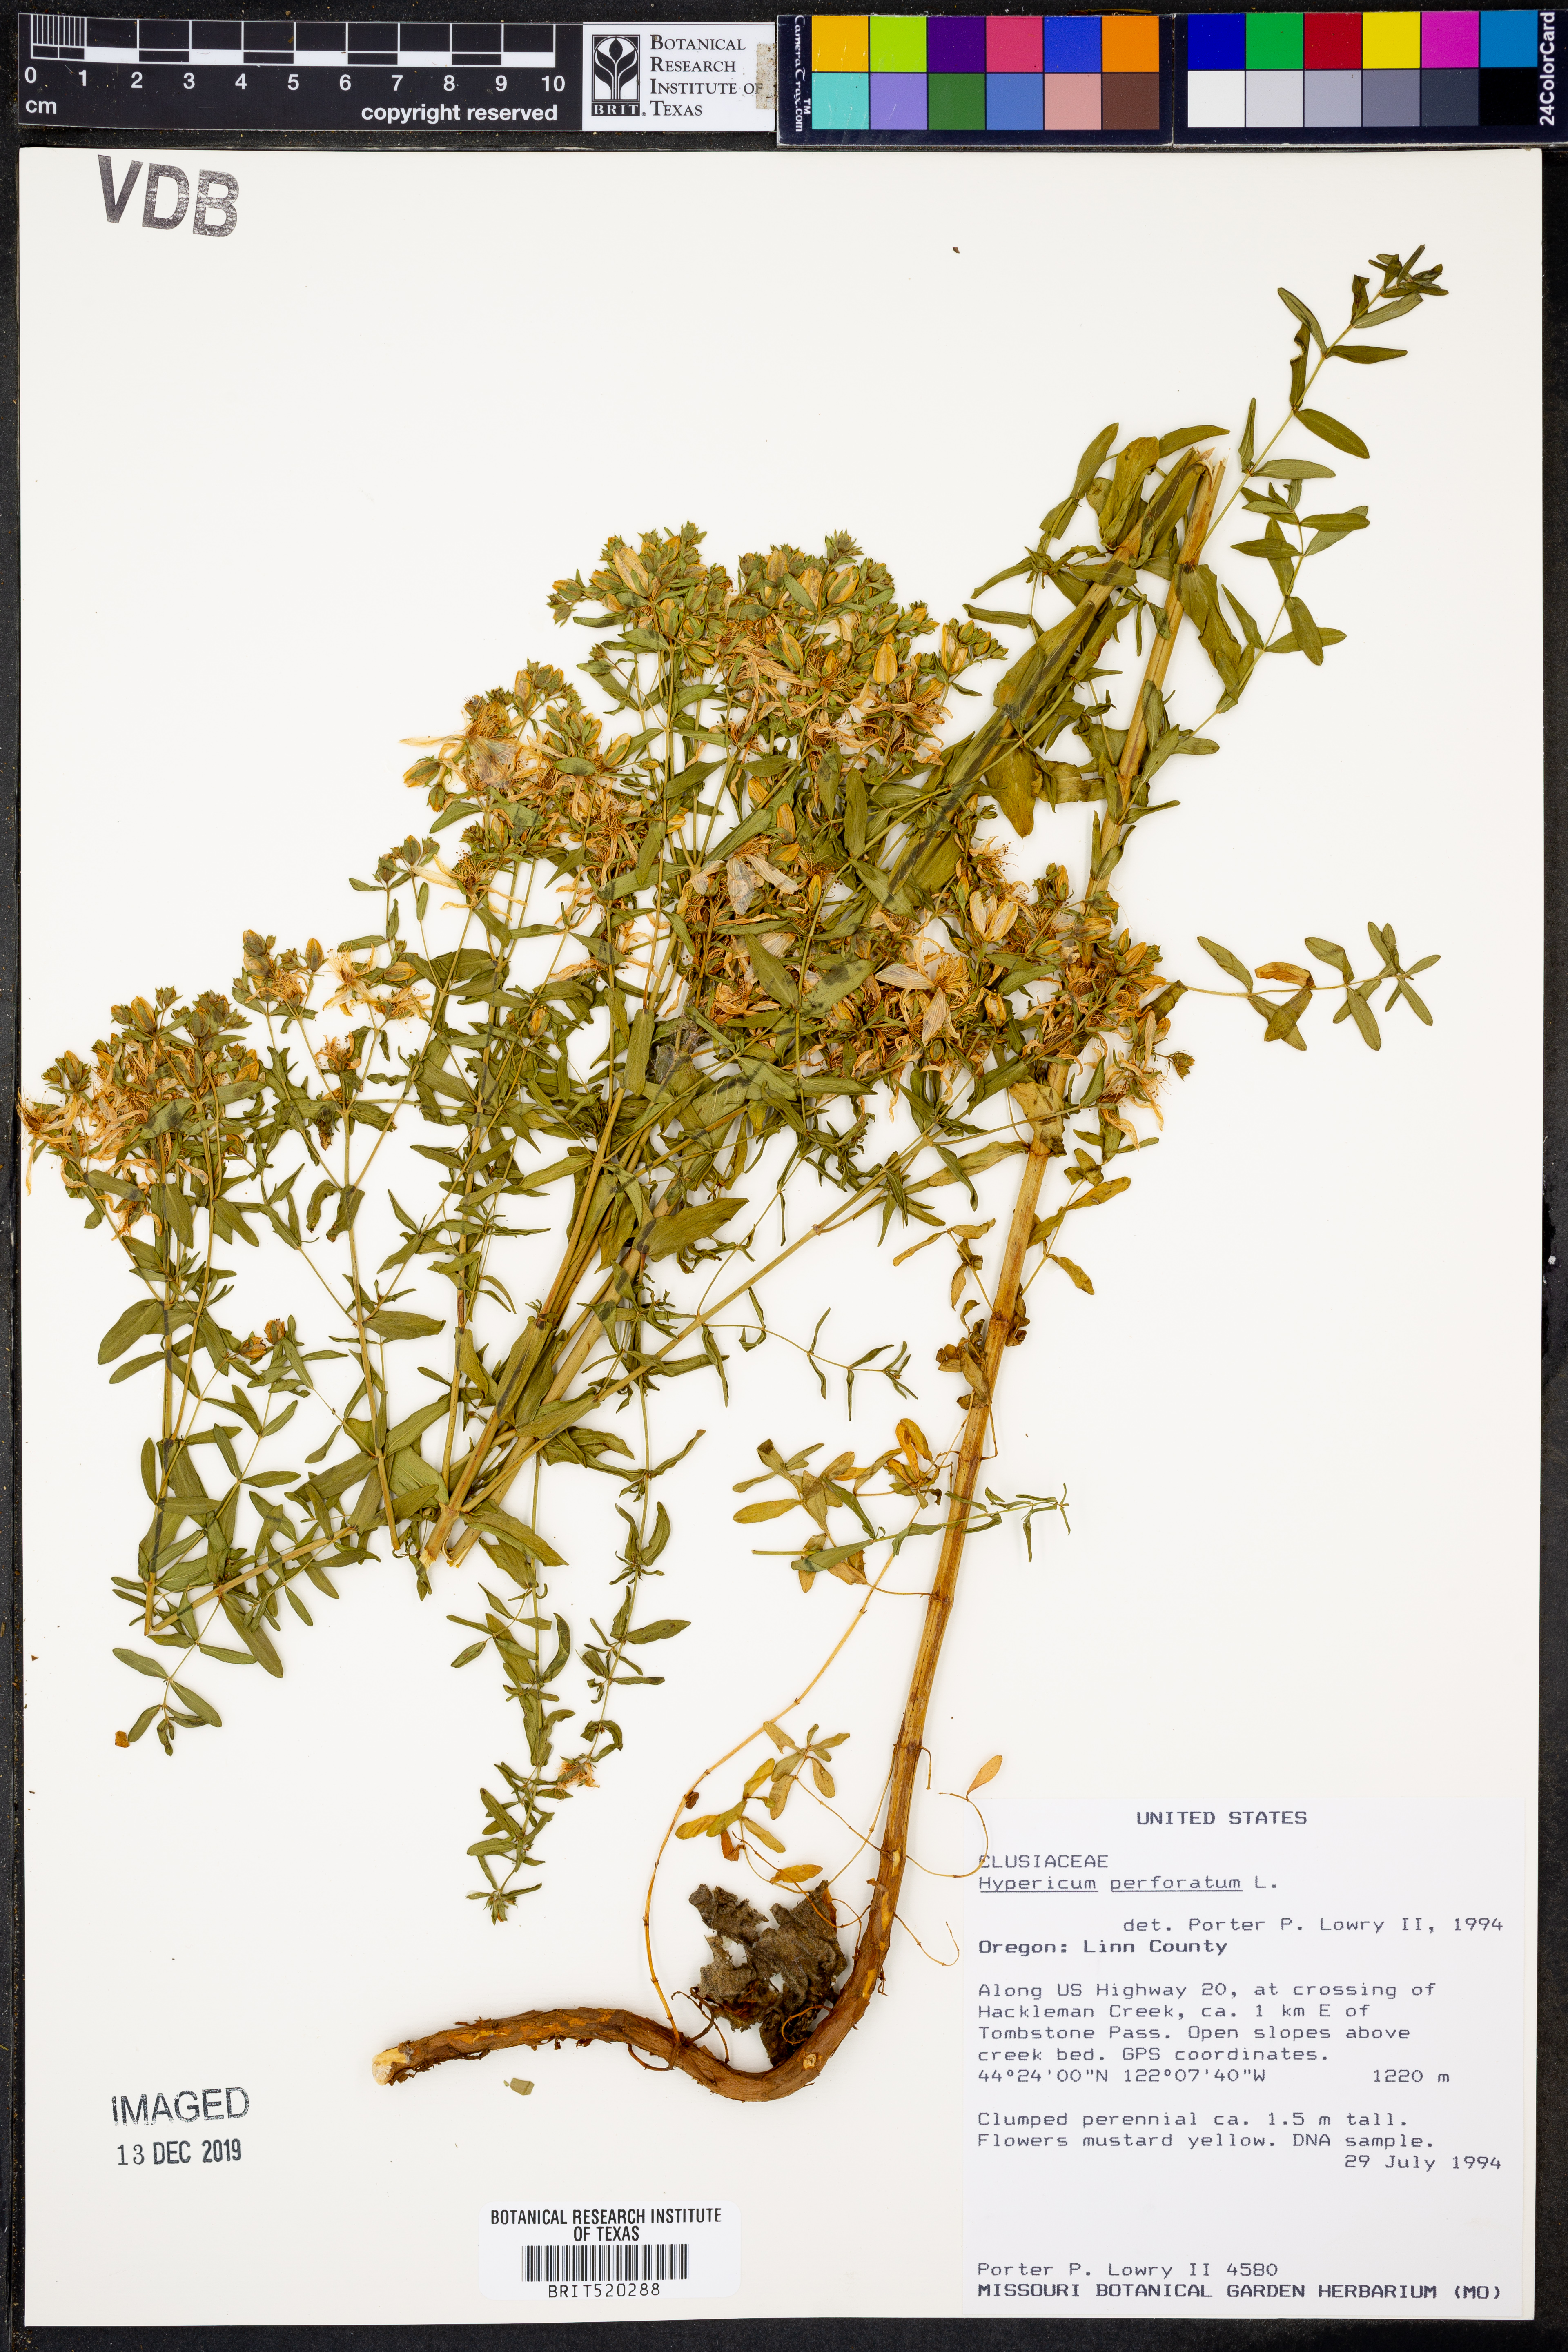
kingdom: Plantae
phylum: Tracheophyta
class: Magnoliopsida
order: Malpighiales
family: Hypericaceae
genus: Hypericum
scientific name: Hypericum perforatum
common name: Common st. johnswort
